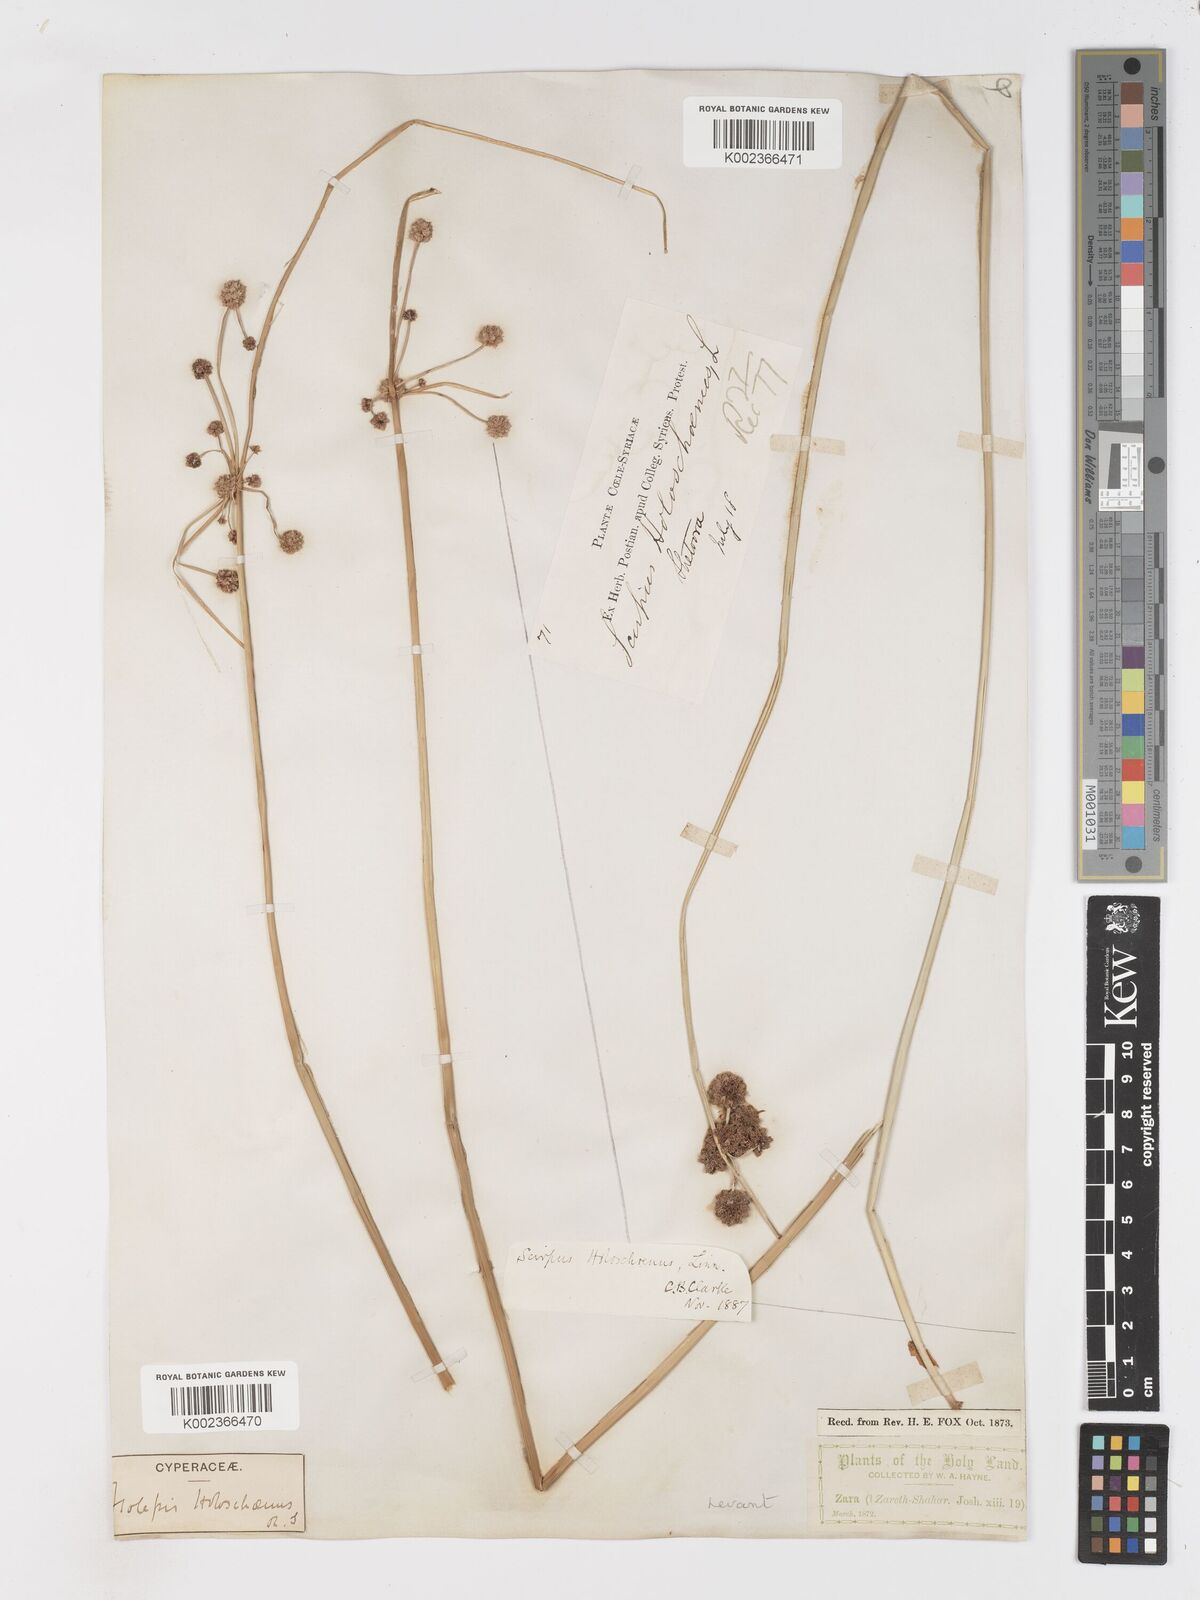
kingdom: Plantae
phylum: Tracheophyta
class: Liliopsida
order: Poales
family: Cyperaceae
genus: Scirpoides
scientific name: Scirpoides holoschoenus
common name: Round-headed club-rush
